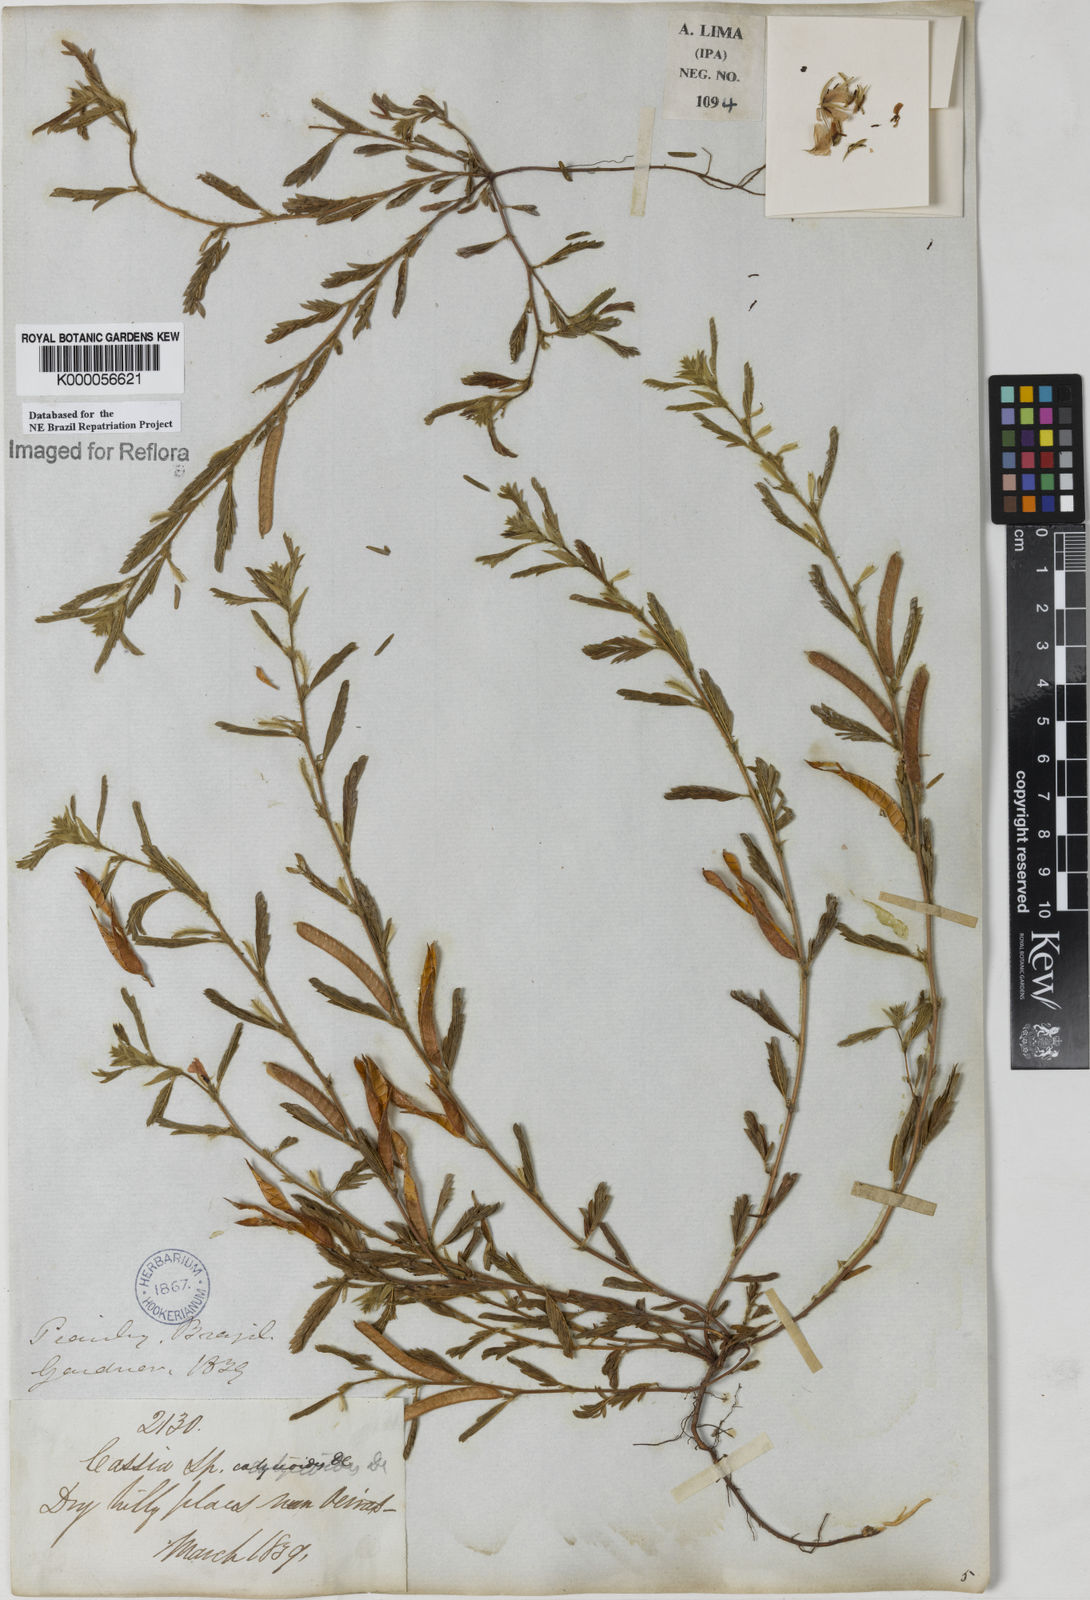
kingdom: Plantae
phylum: Tracheophyta
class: Magnoliopsida
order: Fabales
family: Fabaceae
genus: Chamaecrista
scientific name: Chamaecrista calycioides
